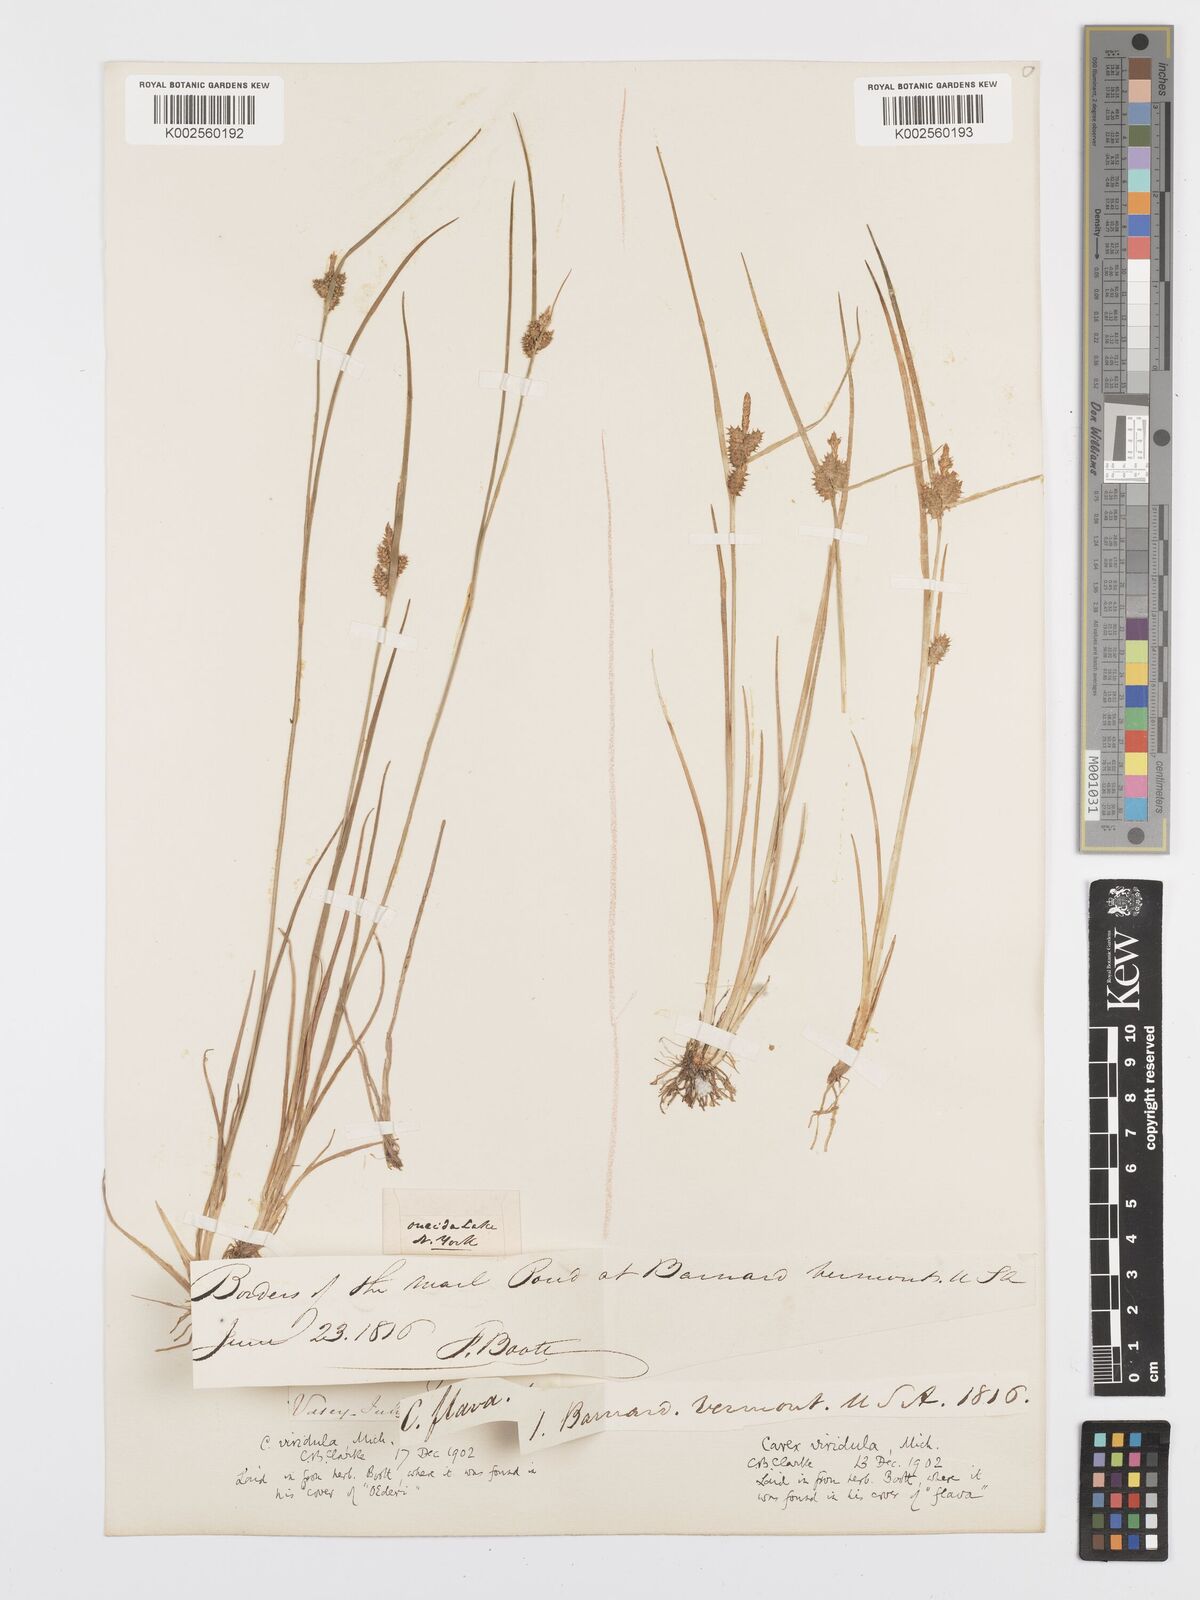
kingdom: Plantae
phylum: Tracheophyta
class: Liliopsida
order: Poales
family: Cyperaceae
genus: Carex
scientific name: Carex oederi
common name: Common & small-fruited yellow-sedge
